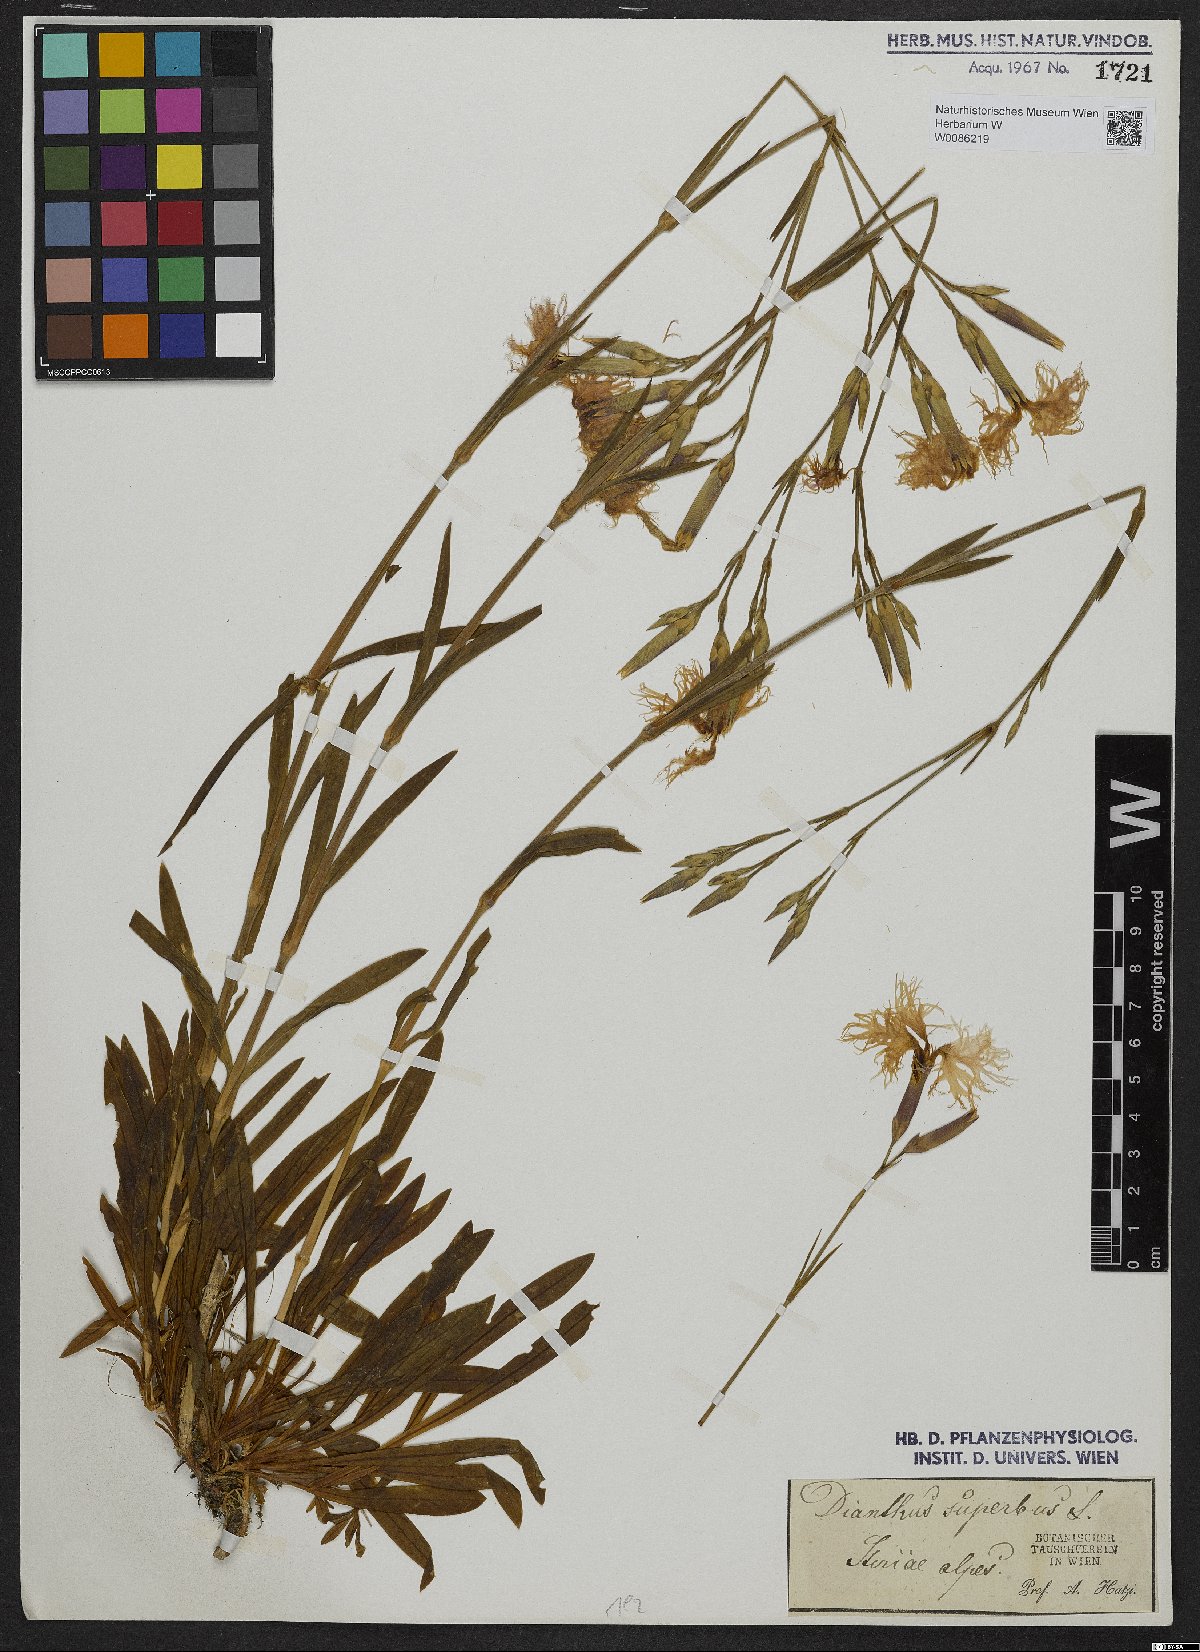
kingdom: Plantae
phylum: Tracheophyta
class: Magnoliopsida
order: Caryophyllales
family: Caryophyllaceae
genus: Dianthus
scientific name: Dianthus superbus
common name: Fringed pink
